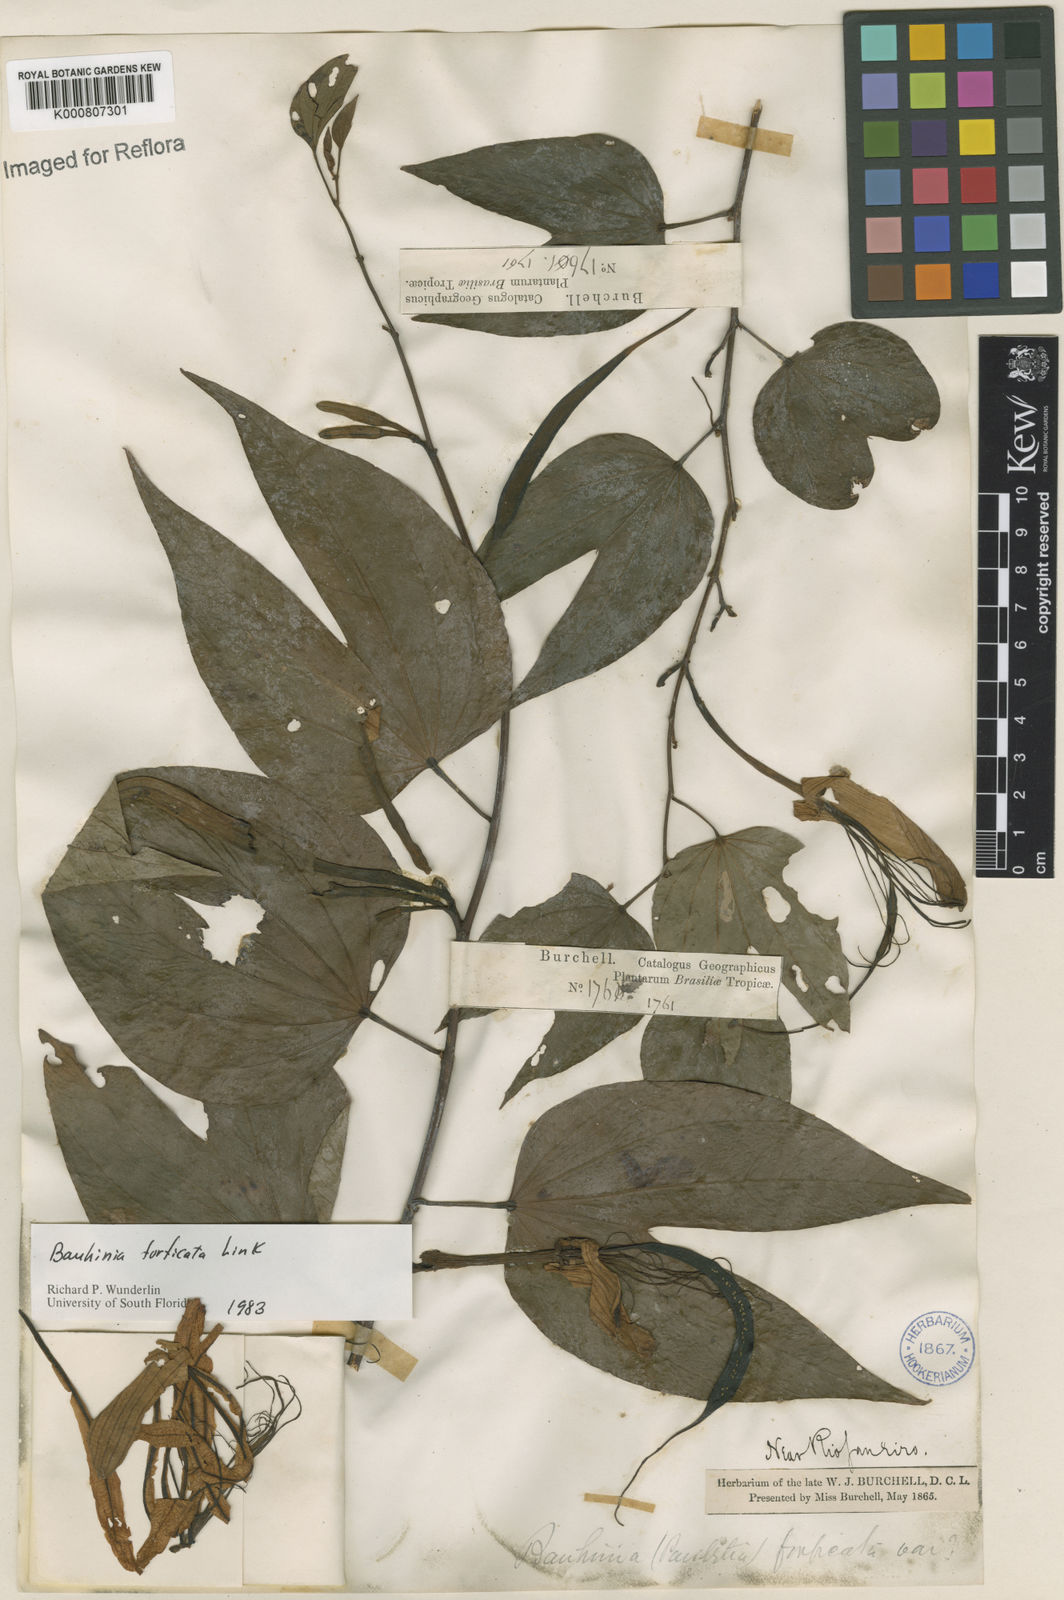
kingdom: Plantae
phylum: Tracheophyta
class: Magnoliopsida
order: Fabales
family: Fabaceae
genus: Bauhinia
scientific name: Bauhinia forficata
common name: Orchid tree
